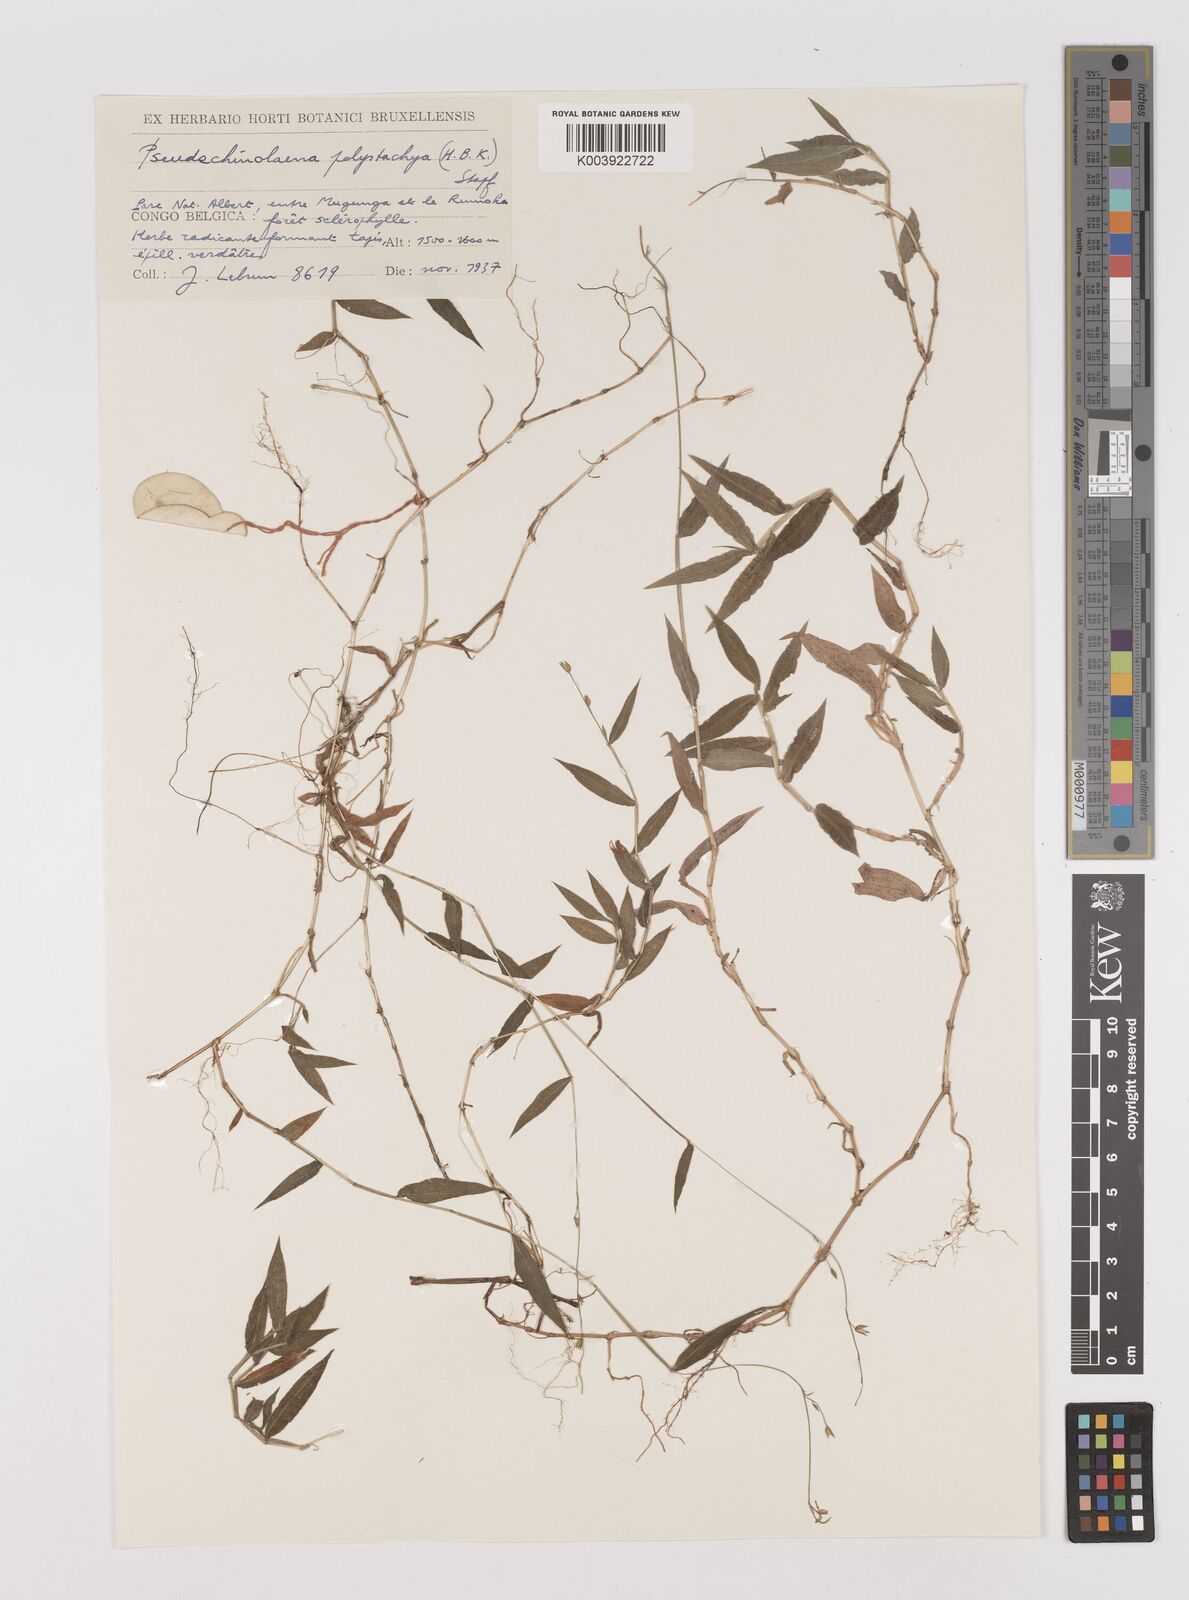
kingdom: Plantae
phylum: Tracheophyta
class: Liliopsida
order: Poales
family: Poaceae
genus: Pseudechinolaena
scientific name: Pseudechinolaena polystachya
